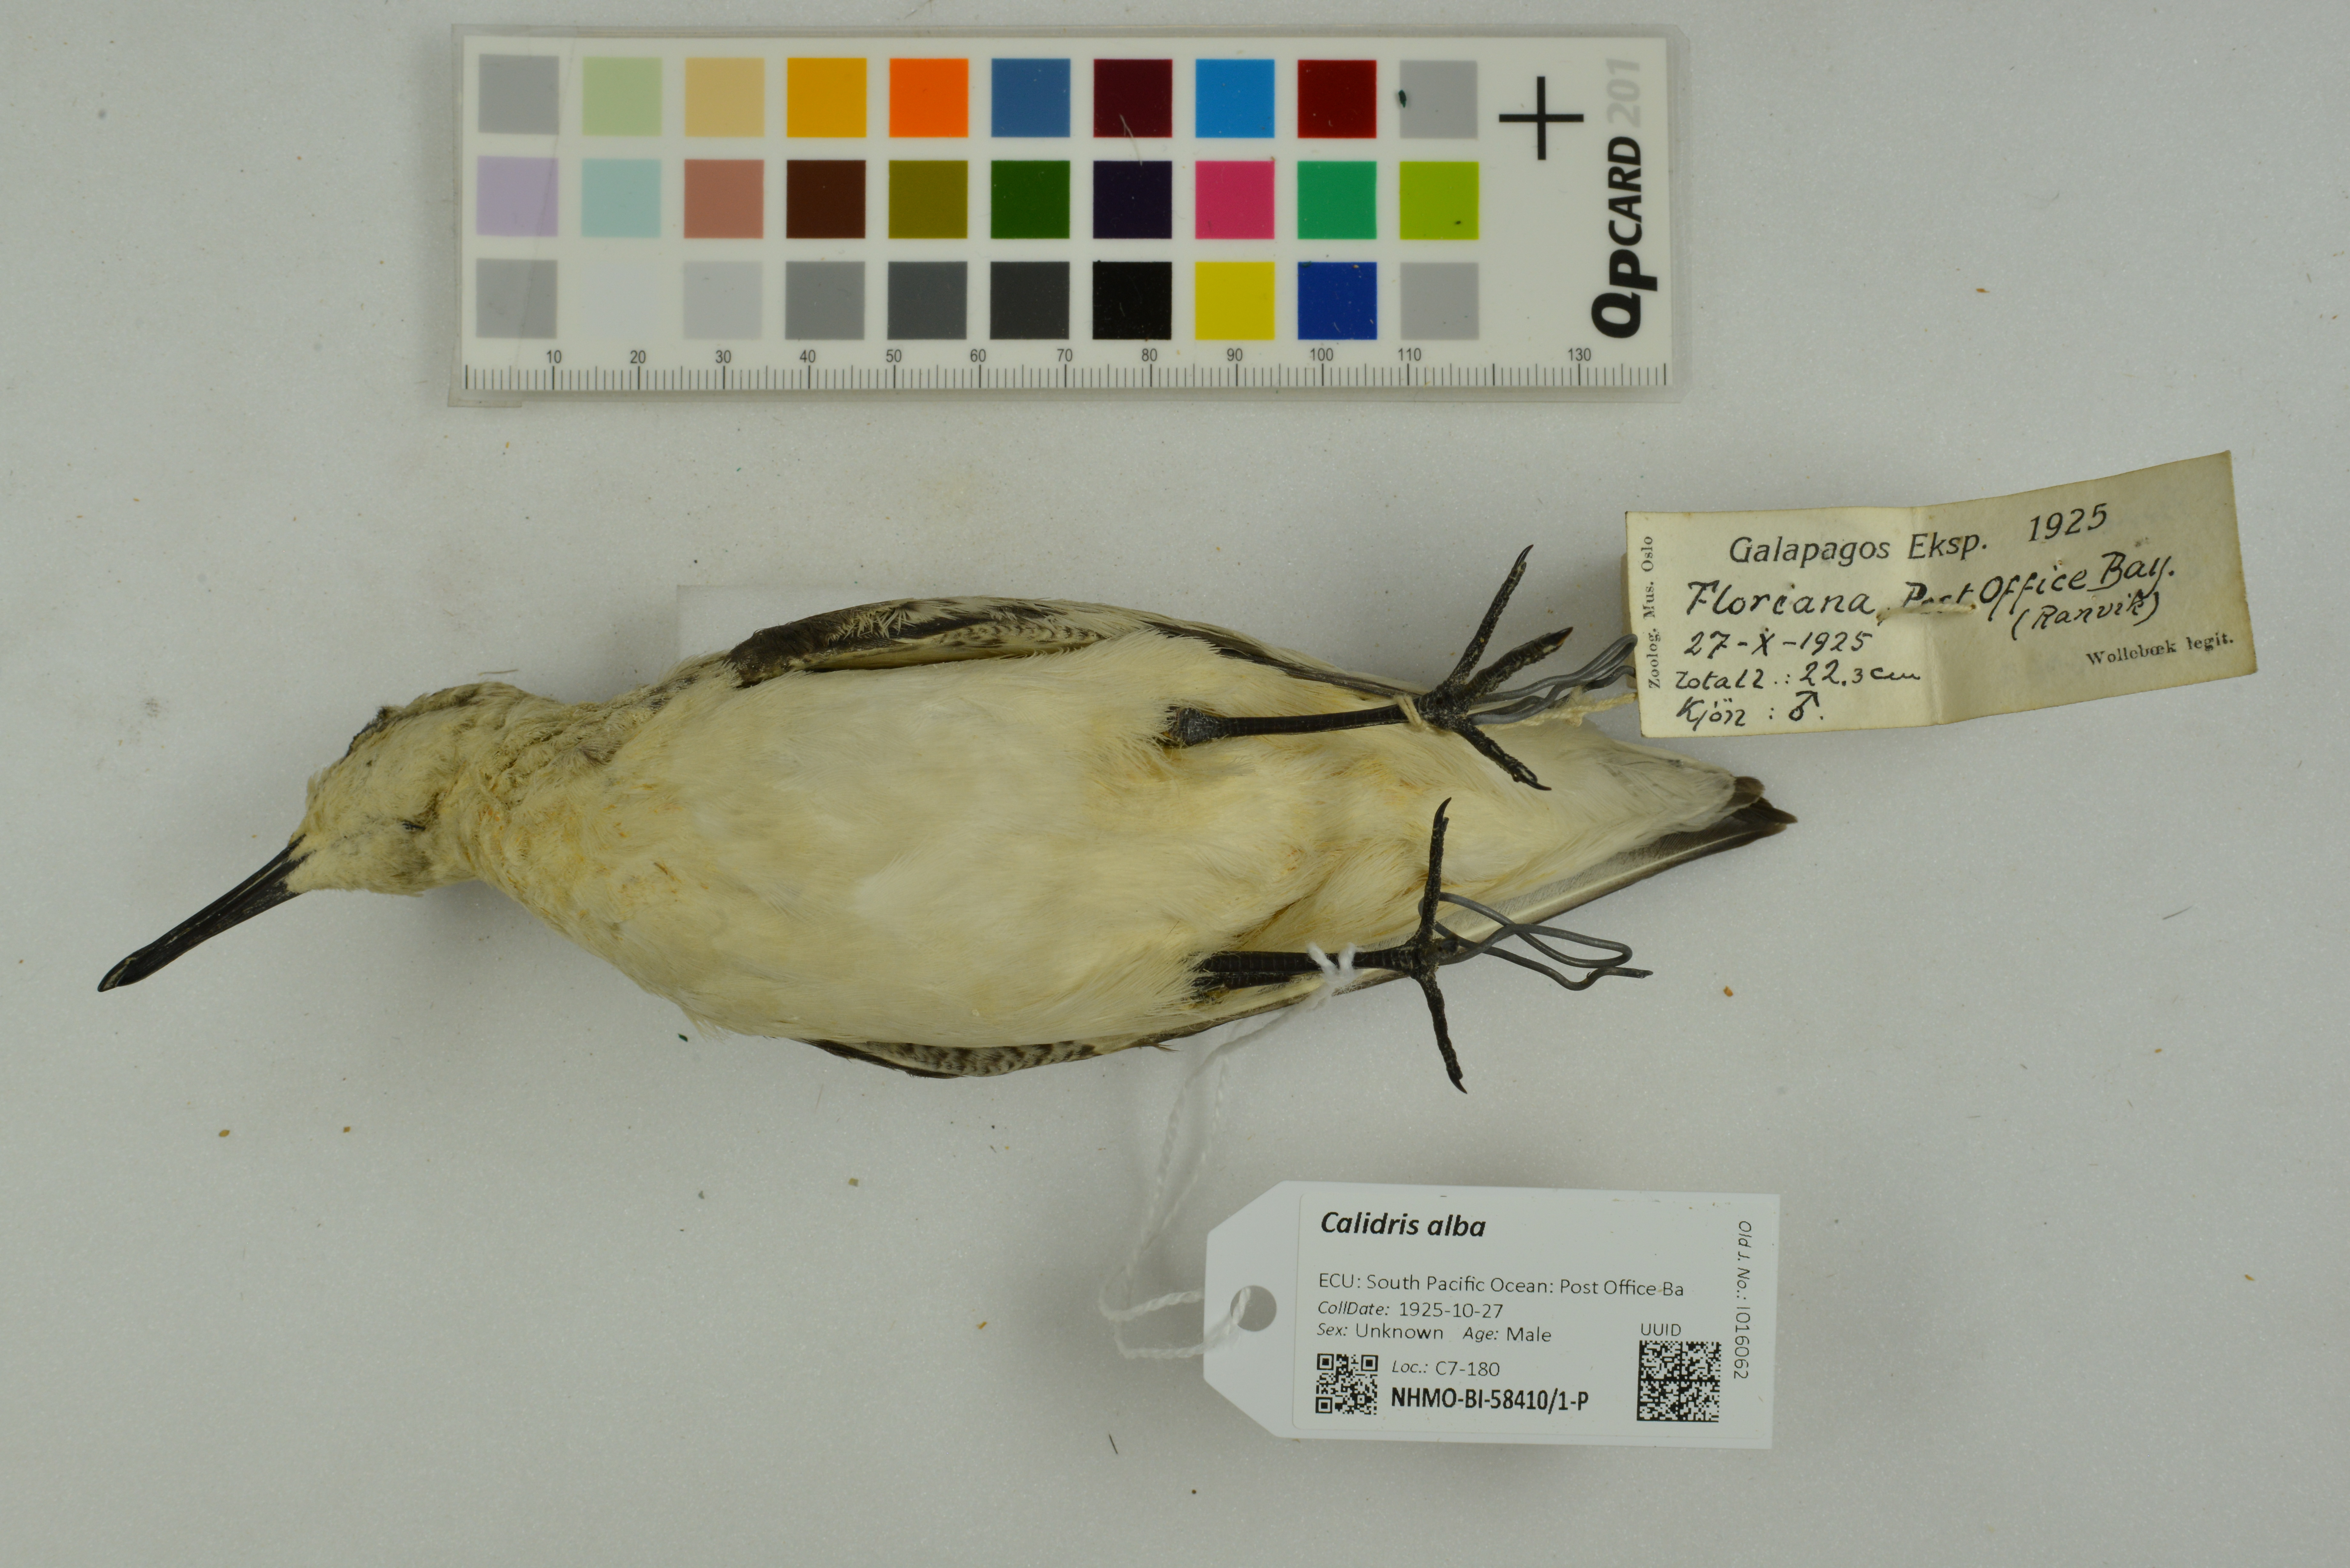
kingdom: Animalia
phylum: Chordata
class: Aves
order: Charadriiformes
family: Scolopacidae
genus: Calidris
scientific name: Calidris alba
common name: Sanderling
